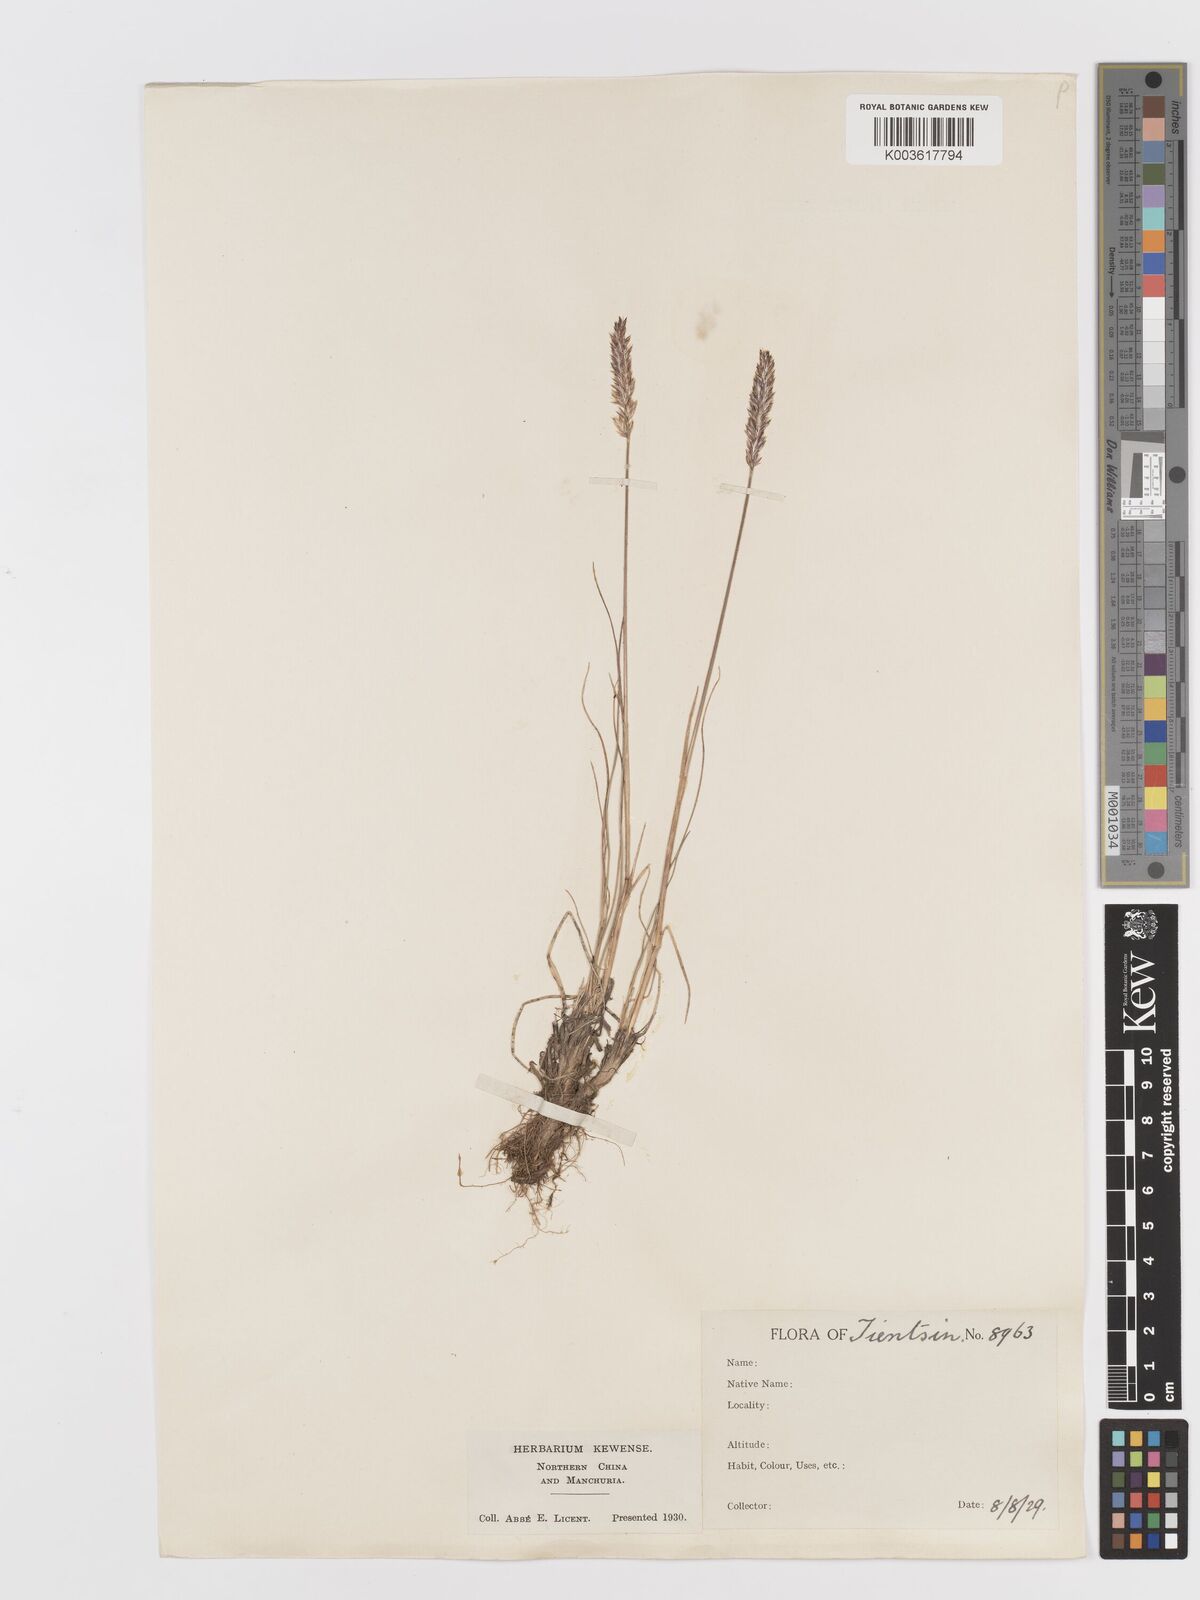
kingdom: Plantae
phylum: Tracheophyta
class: Liliopsida
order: Poales
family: Poaceae
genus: Koeleria
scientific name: Koeleria macrantha
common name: Crested hair-grass
